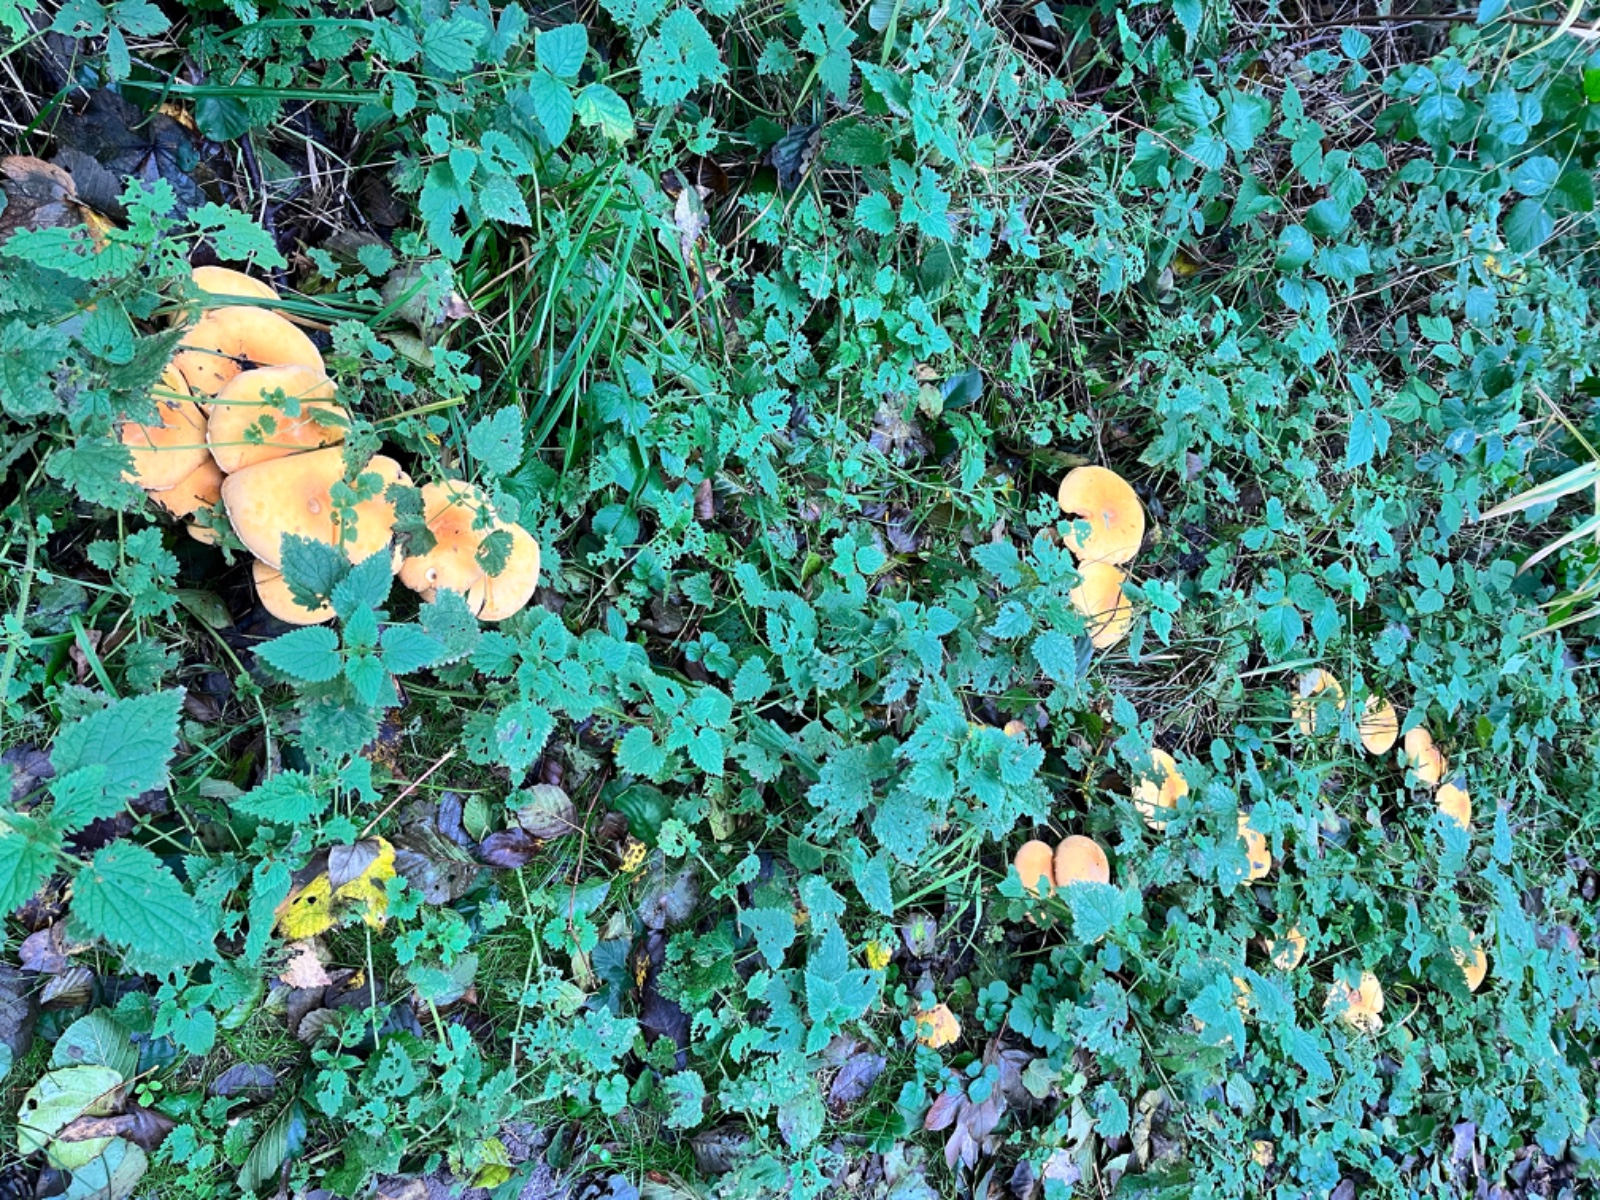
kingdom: Fungi
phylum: Basidiomycota
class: Agaricomycetes
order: Agaricales
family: Tricholomataceae
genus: Phaeolepiota
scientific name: Phaeolepiota aurea
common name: gyldenhat
